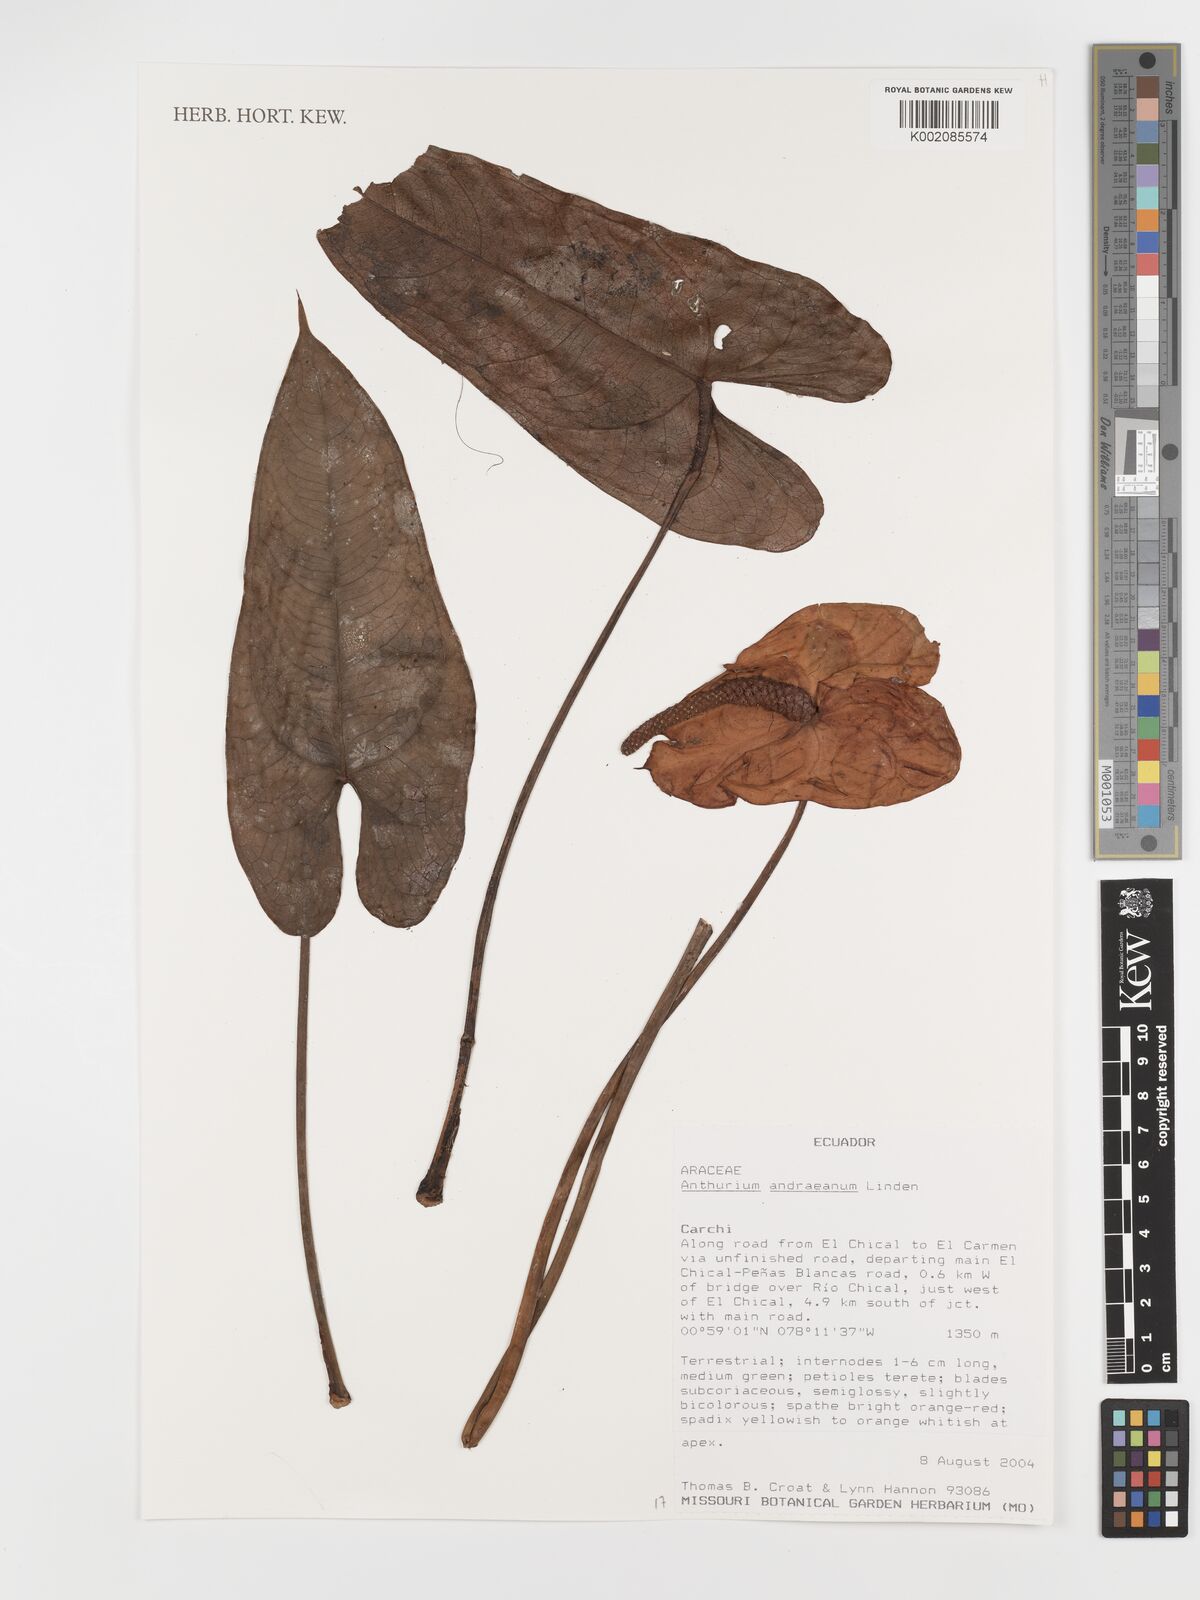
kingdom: Plantae
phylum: Tracheophyta
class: Liliopsida
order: Alismatales
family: Araceae
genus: Anthurium
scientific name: Anthurium andraeanum
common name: Flamingo-flower
